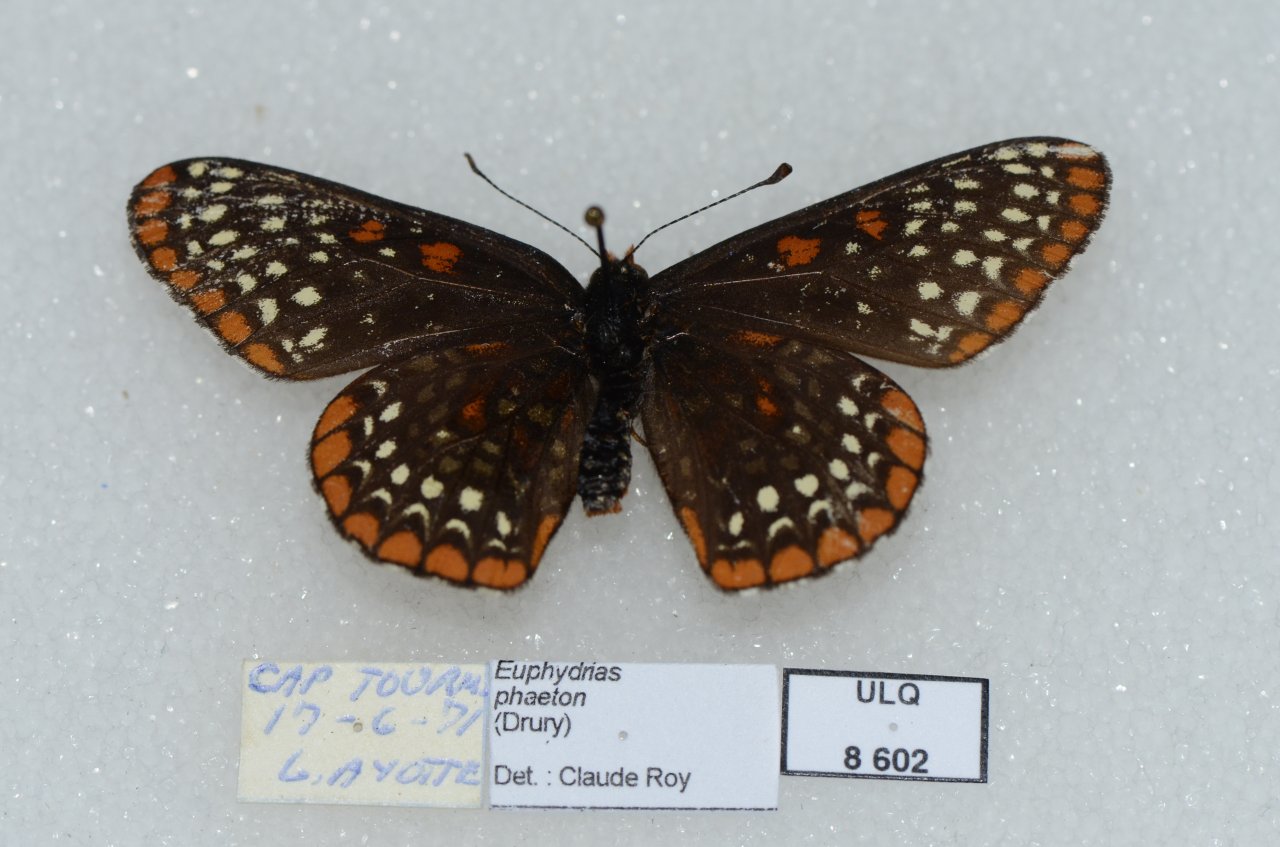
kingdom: Animalia
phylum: Arthropoda
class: Insecta
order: Lepidoptera
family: Nymphalidae
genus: Euphydryas
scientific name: Euphydryas phaeton
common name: Baltimore Checkerspot
